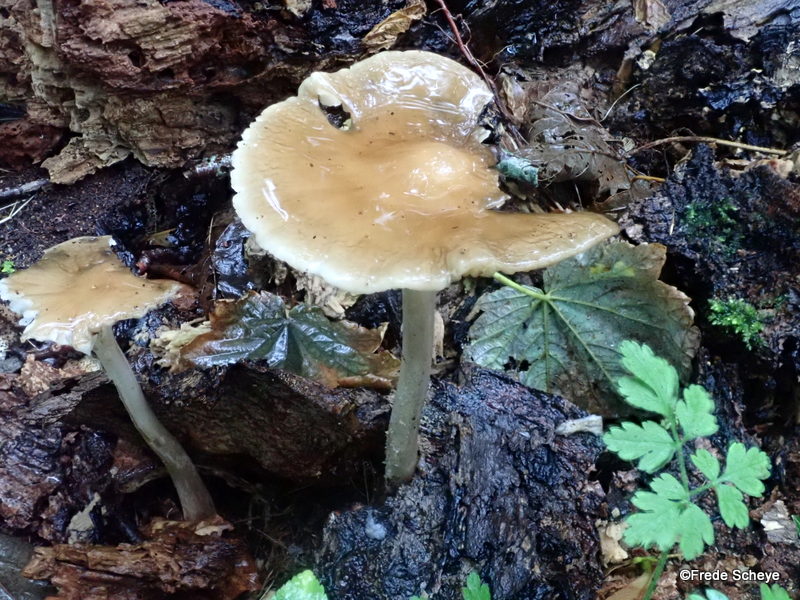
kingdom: Fungi
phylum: Basidiomycota
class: Agaricomycetes
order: Agaricales
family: Physalacriaceae
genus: Hymenopellis
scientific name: Hymenopellis radicata
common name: almindelig pælerodshat
